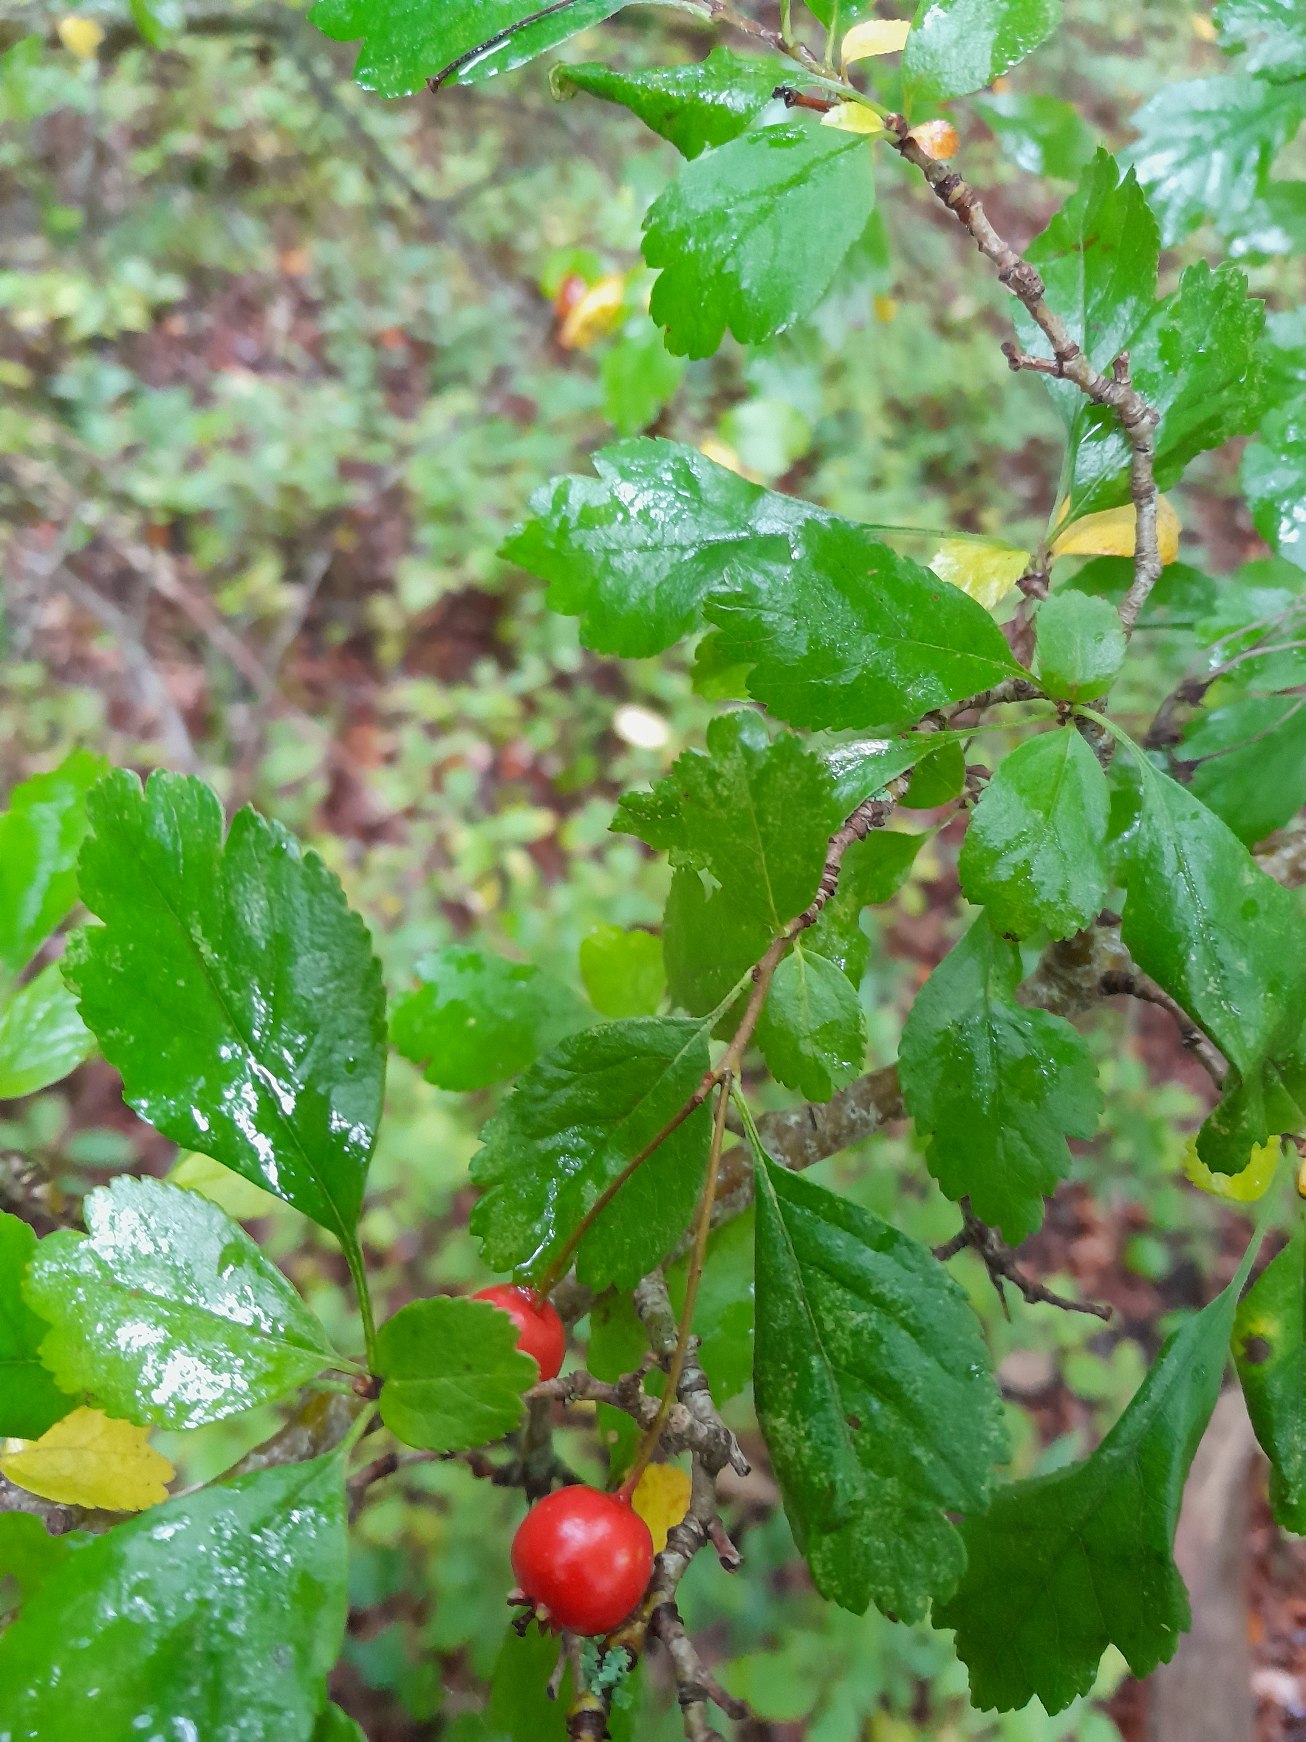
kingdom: Plantae
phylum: Tracheophyta
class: Magnoliopsida
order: Rosales
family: Rosaceae
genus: Crataegus
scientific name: Crataegus laevigata
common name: Almindelig hvidtjørn
